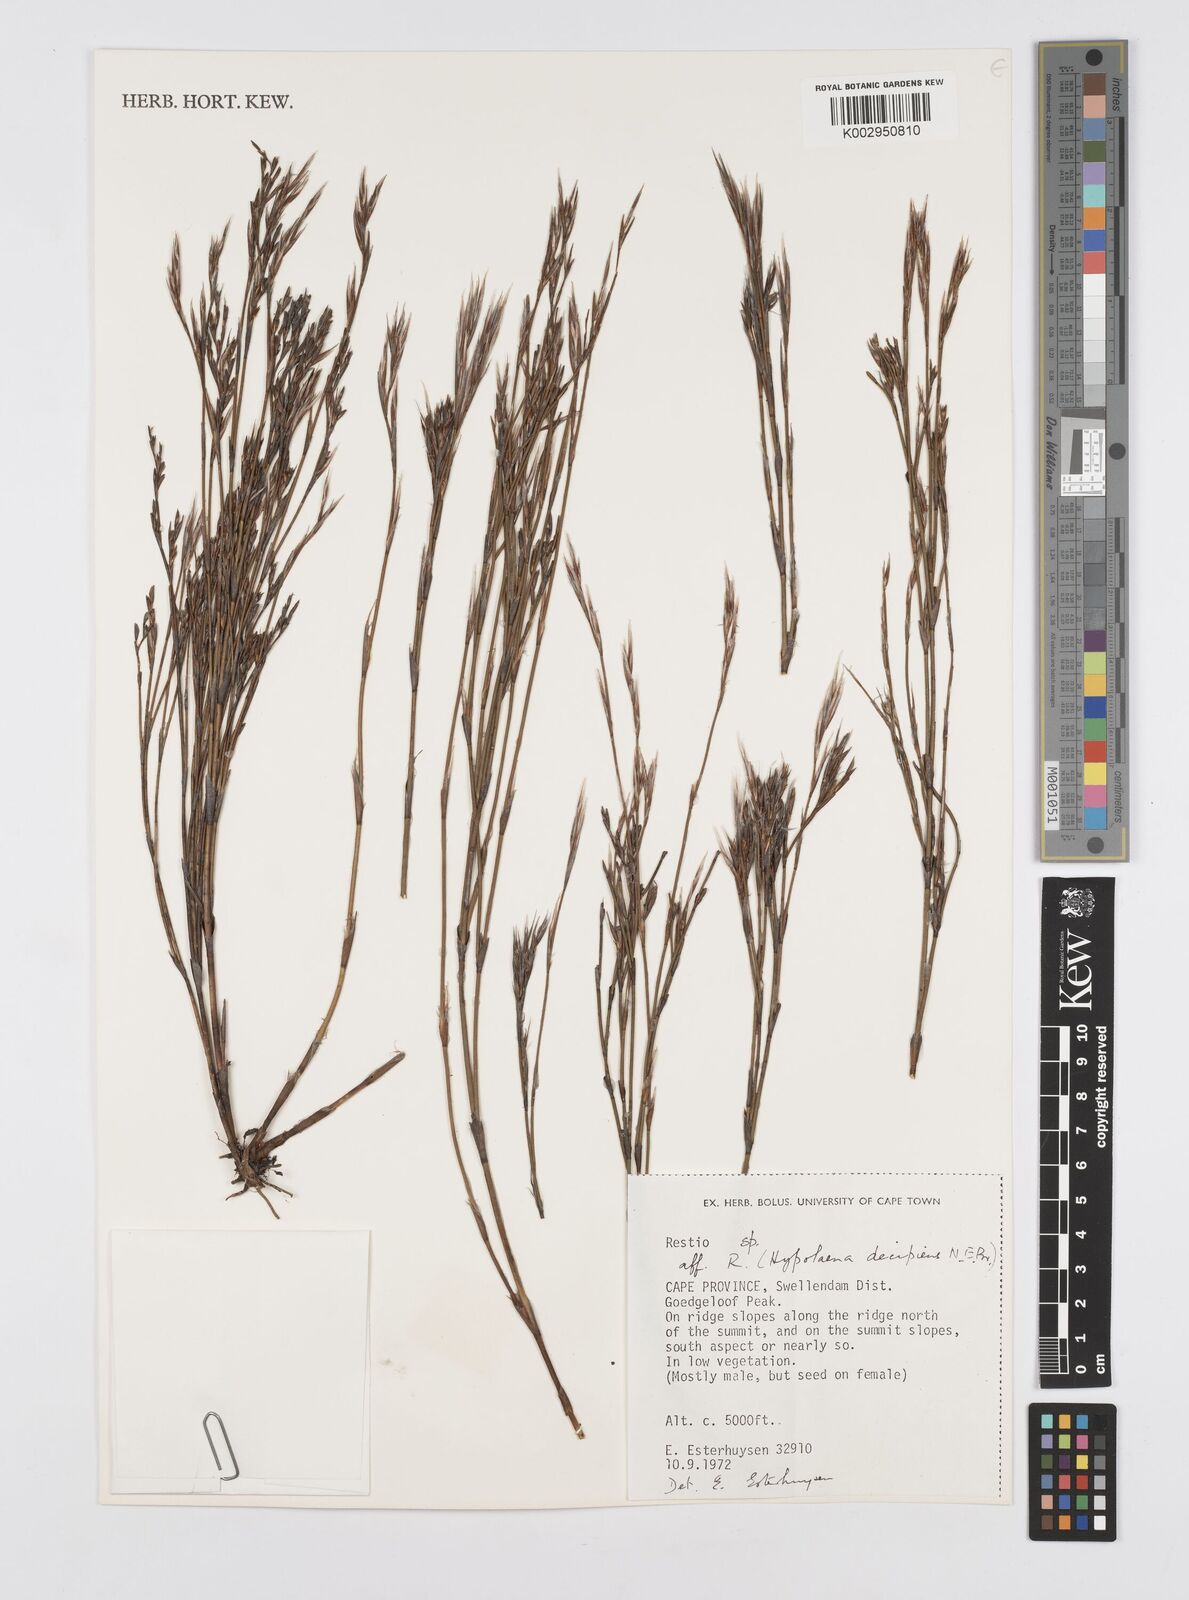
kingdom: Plantae
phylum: Tracheophyta
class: Liliopsida
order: Poales
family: Restionaceae
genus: Restio
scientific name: Restio decipiens
